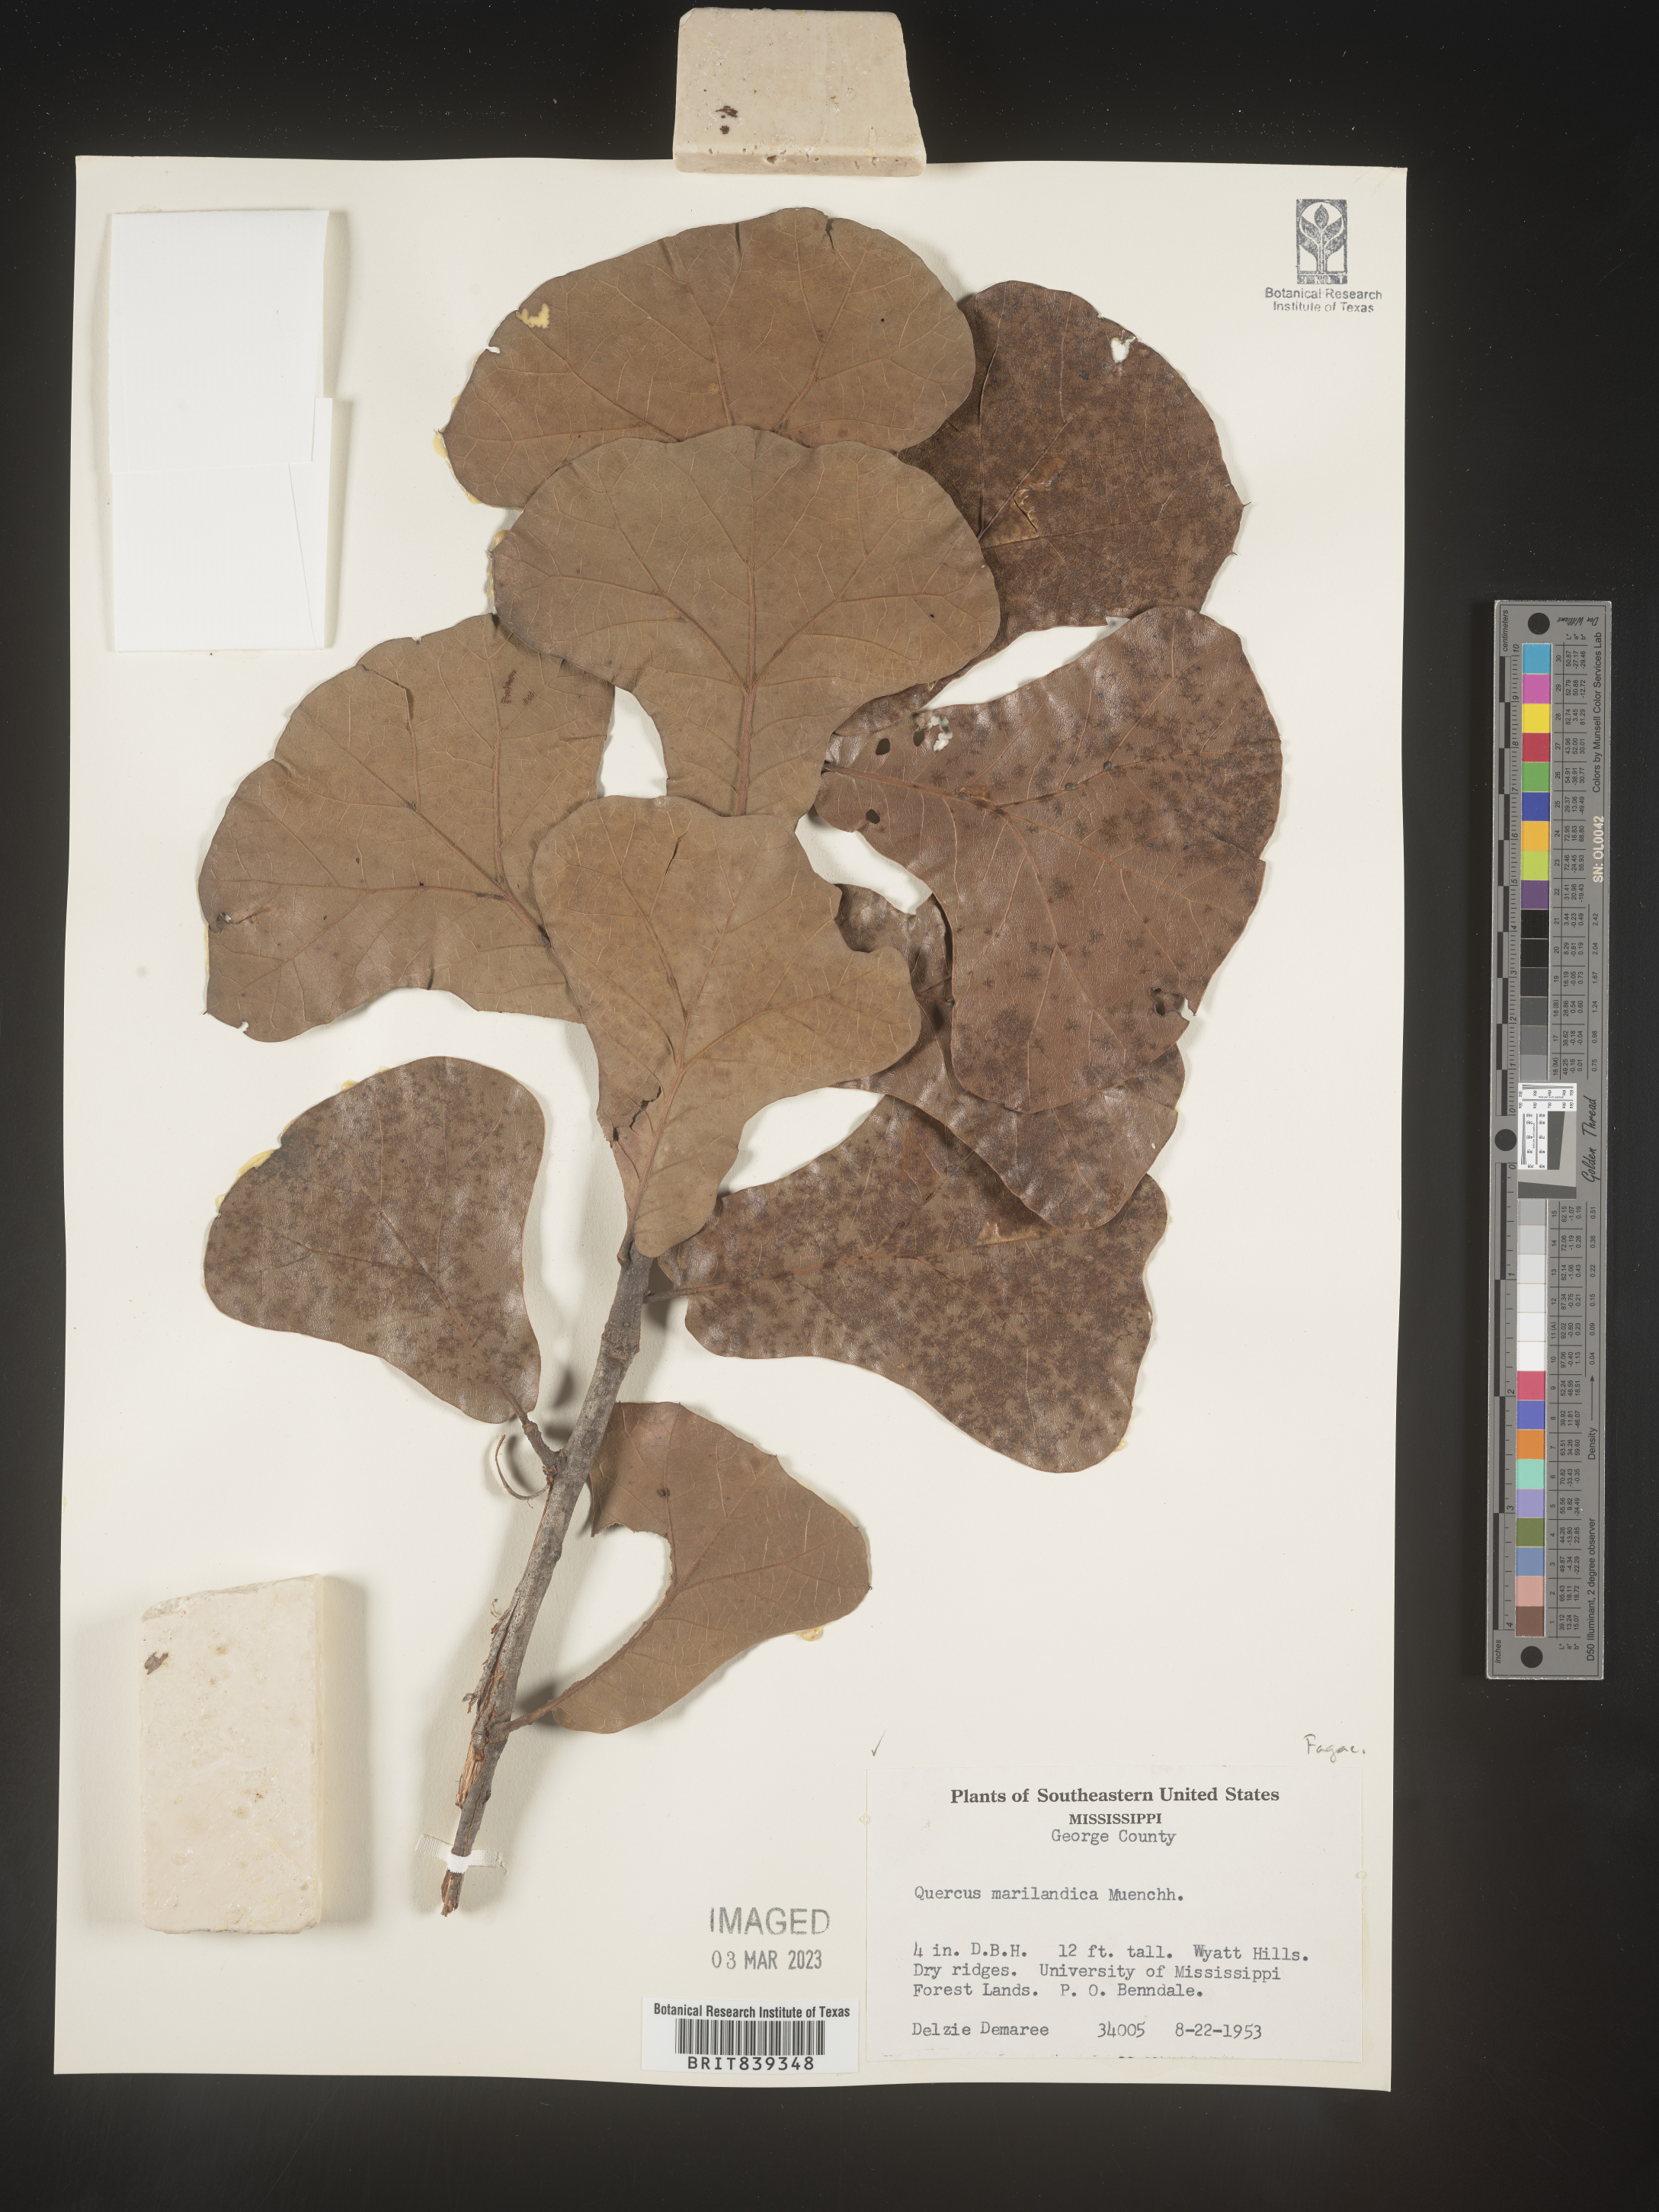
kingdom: Plantae
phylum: Tracheophyta
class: Magnoliopsida
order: Fagales
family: Fagaceae
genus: Quercus
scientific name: Quercus marilandica
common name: Blackjack oak
